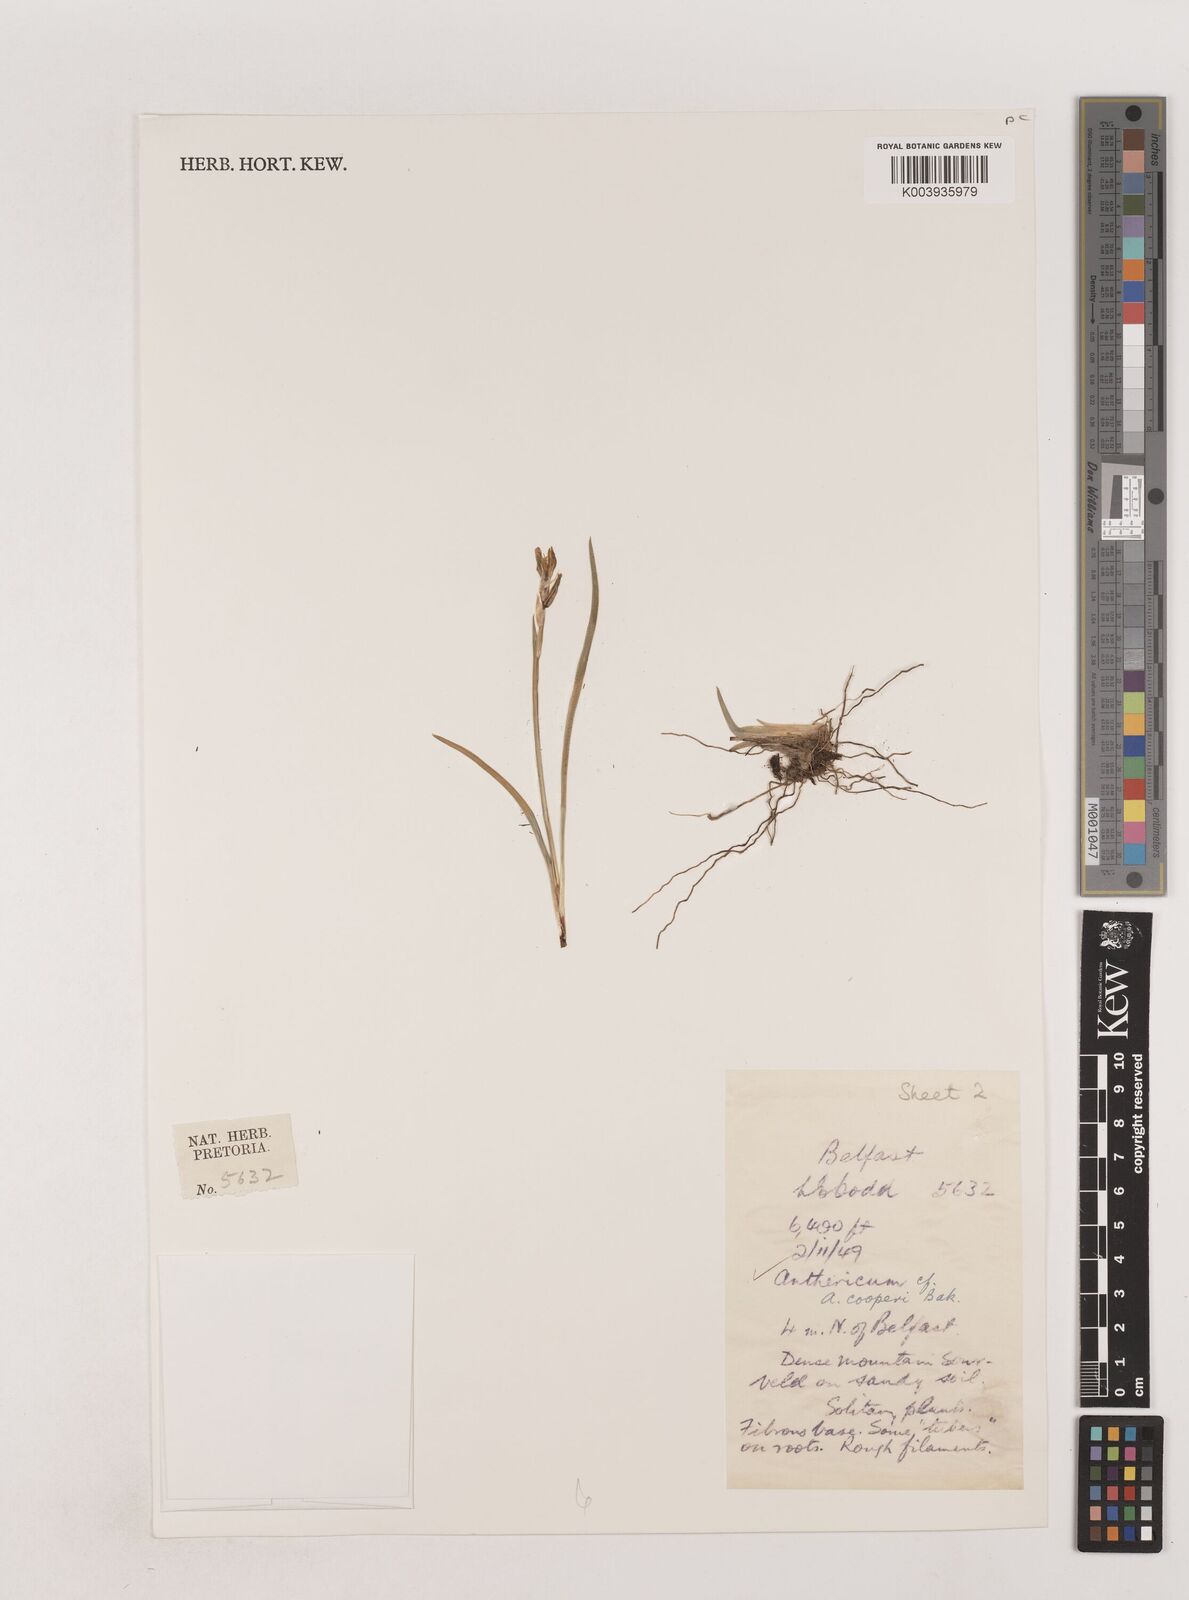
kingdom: Plantae
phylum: Tracheophyta
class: Liliopsida
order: Asparagales
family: Asparagaceae
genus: Chlorophytum
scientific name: Chlorophytum cooperi
